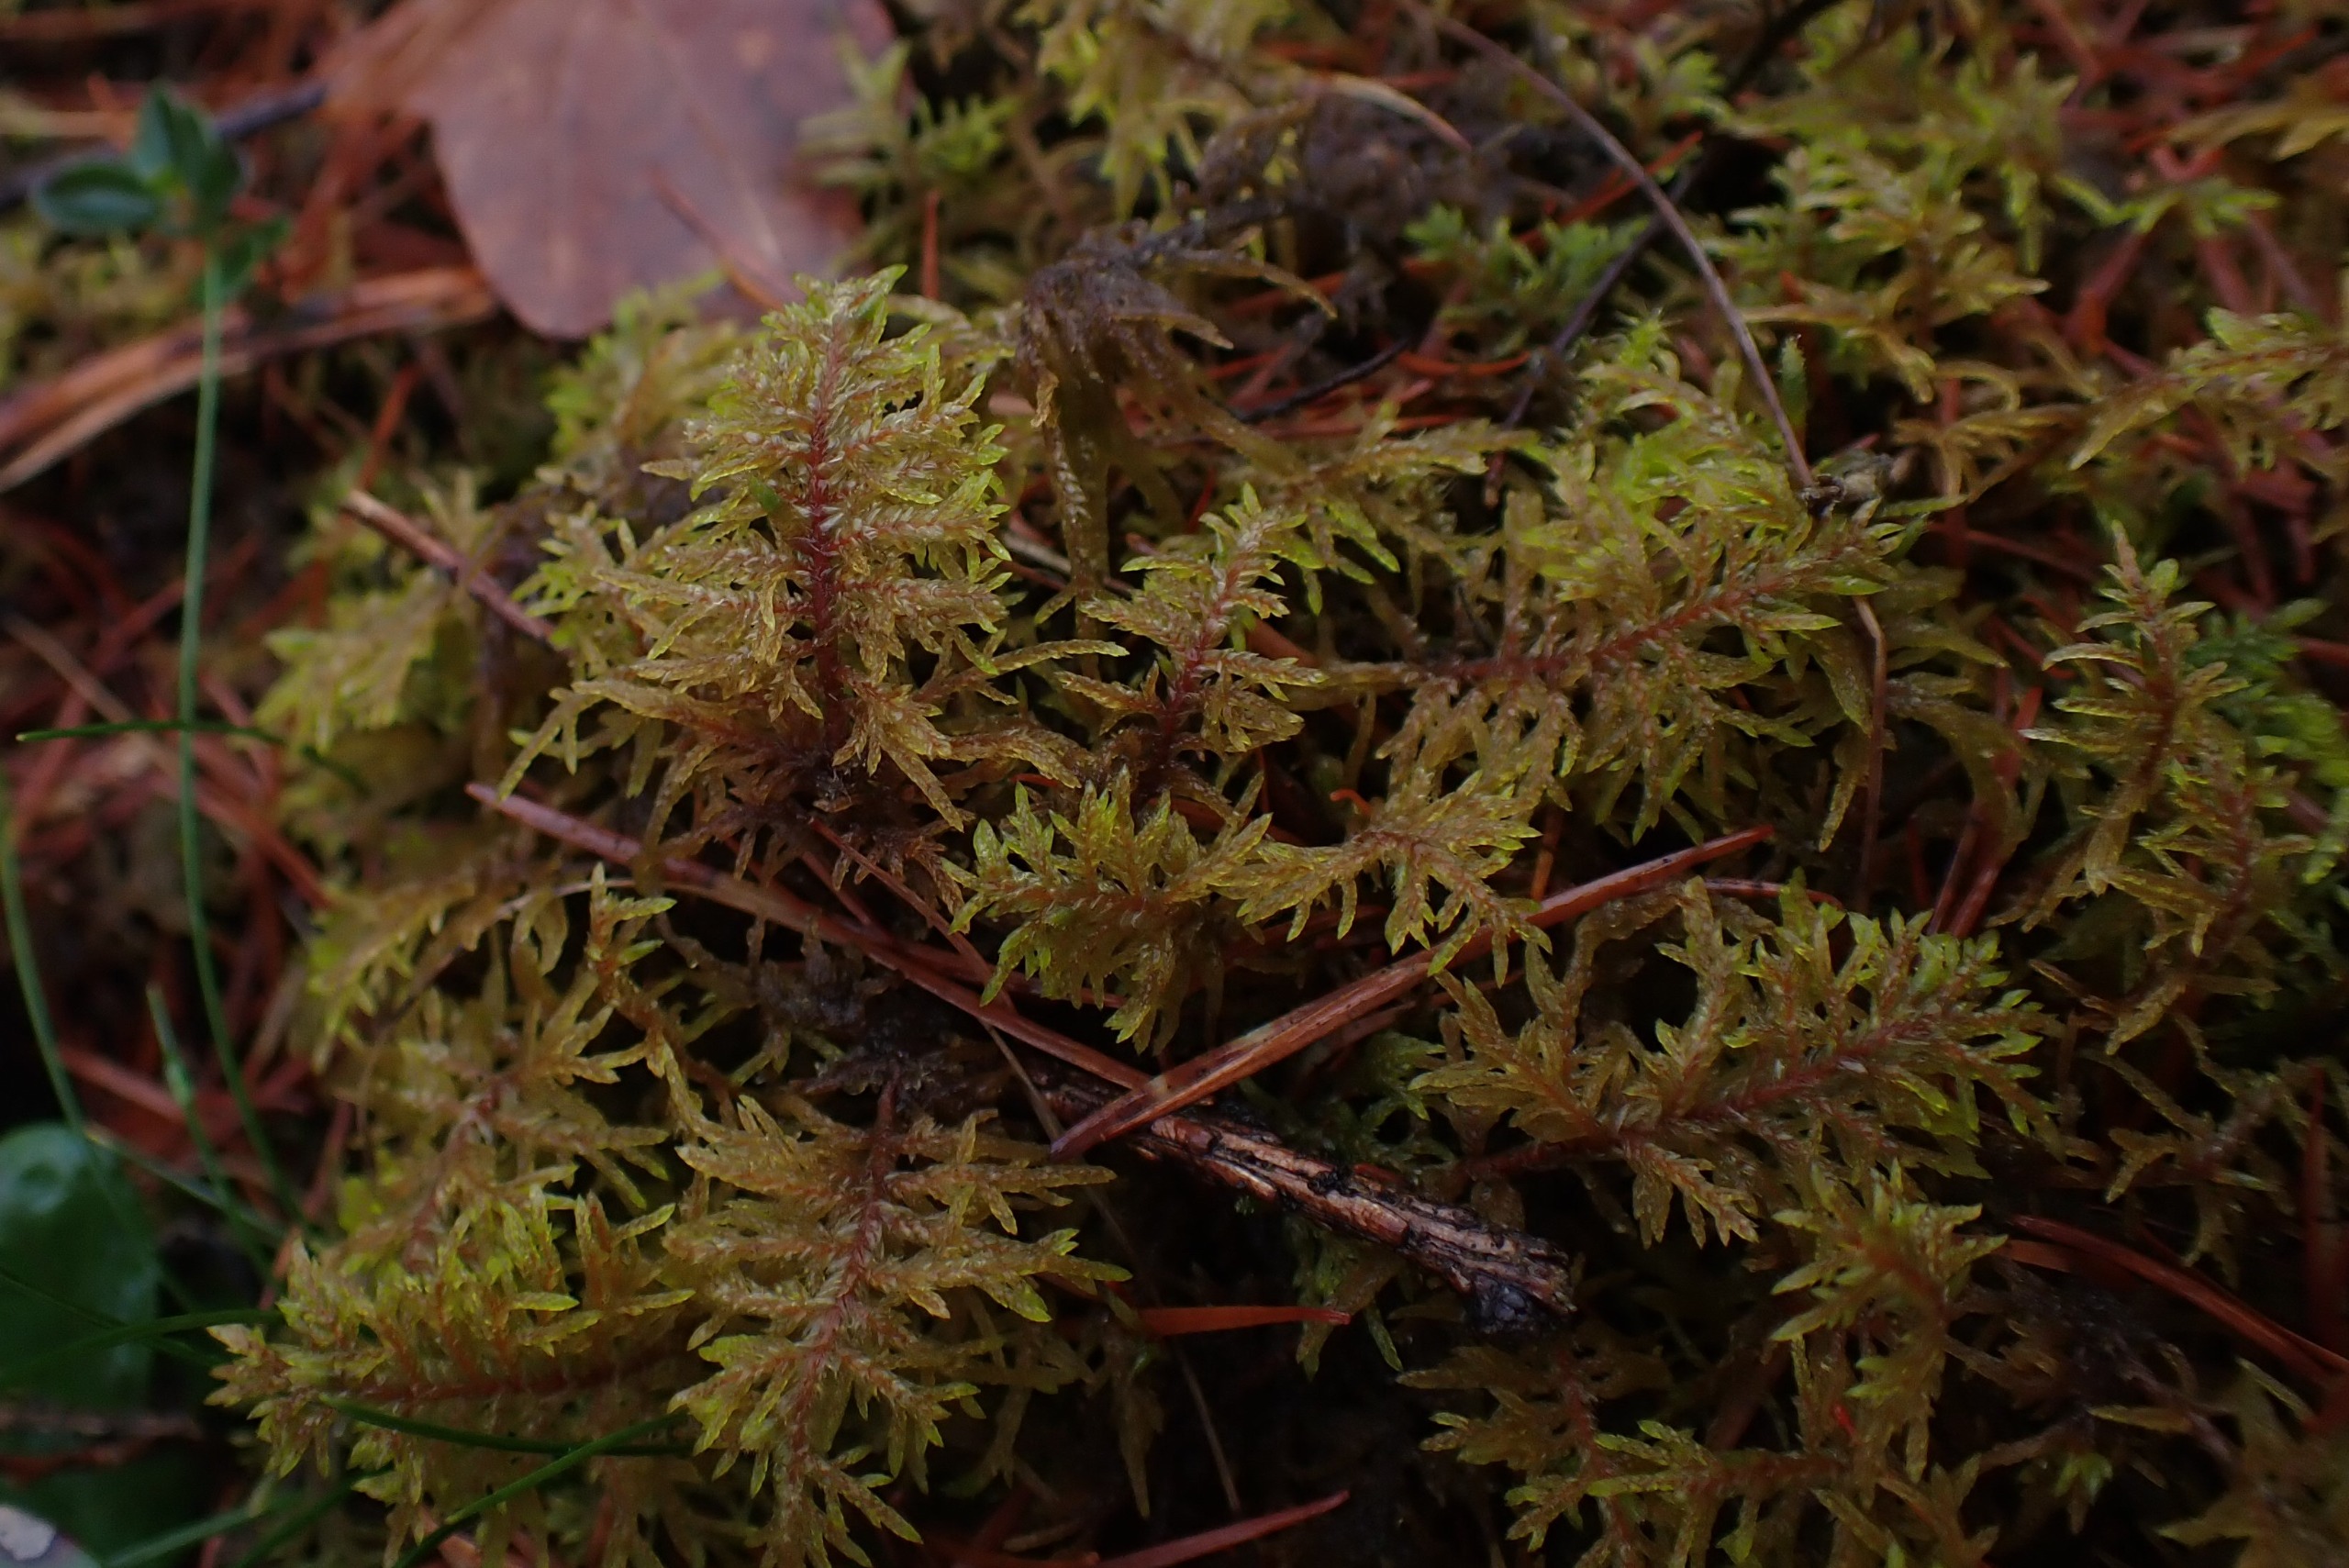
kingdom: Plantae
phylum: Bryophyta
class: Bryopsida
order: Hypnales
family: Hylocomiaceae
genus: Hylocomium
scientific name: Hylocomium splendens
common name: Almindelig etagemos
